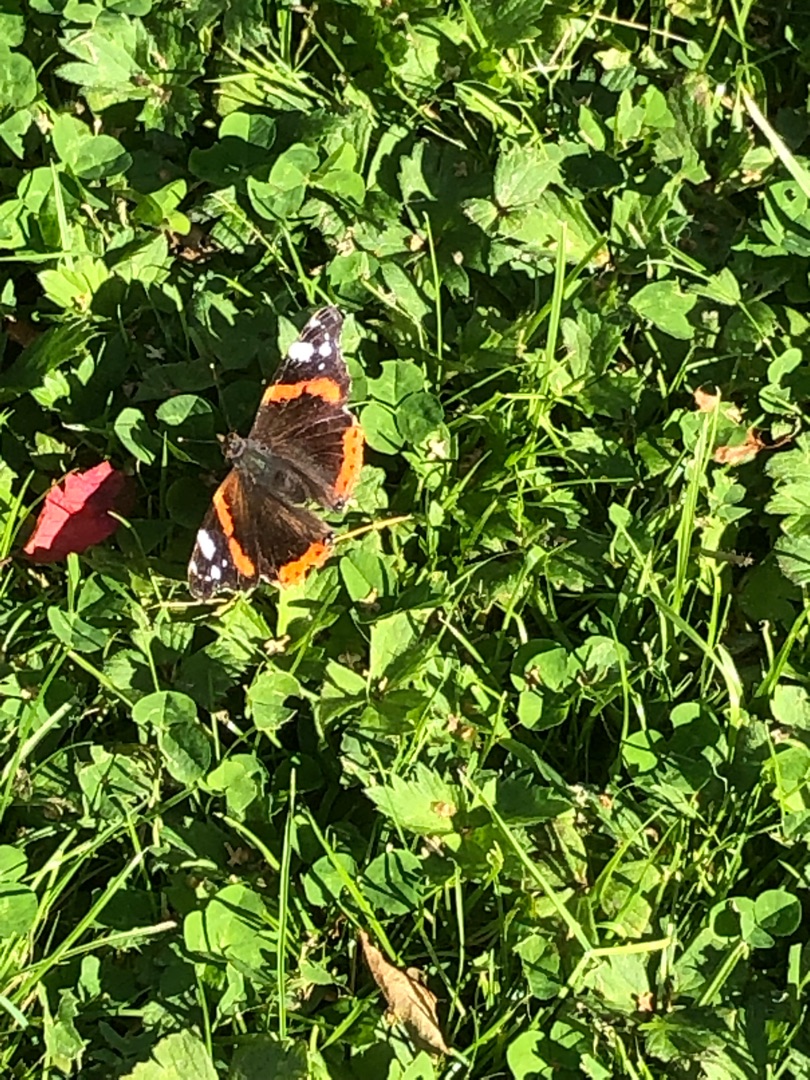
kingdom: Animalia
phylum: Arthropoda
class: Insecta
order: Lepidoptera
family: Nymphalidae
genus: Vanessa
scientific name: Vanessa atalanta
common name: Admiral
